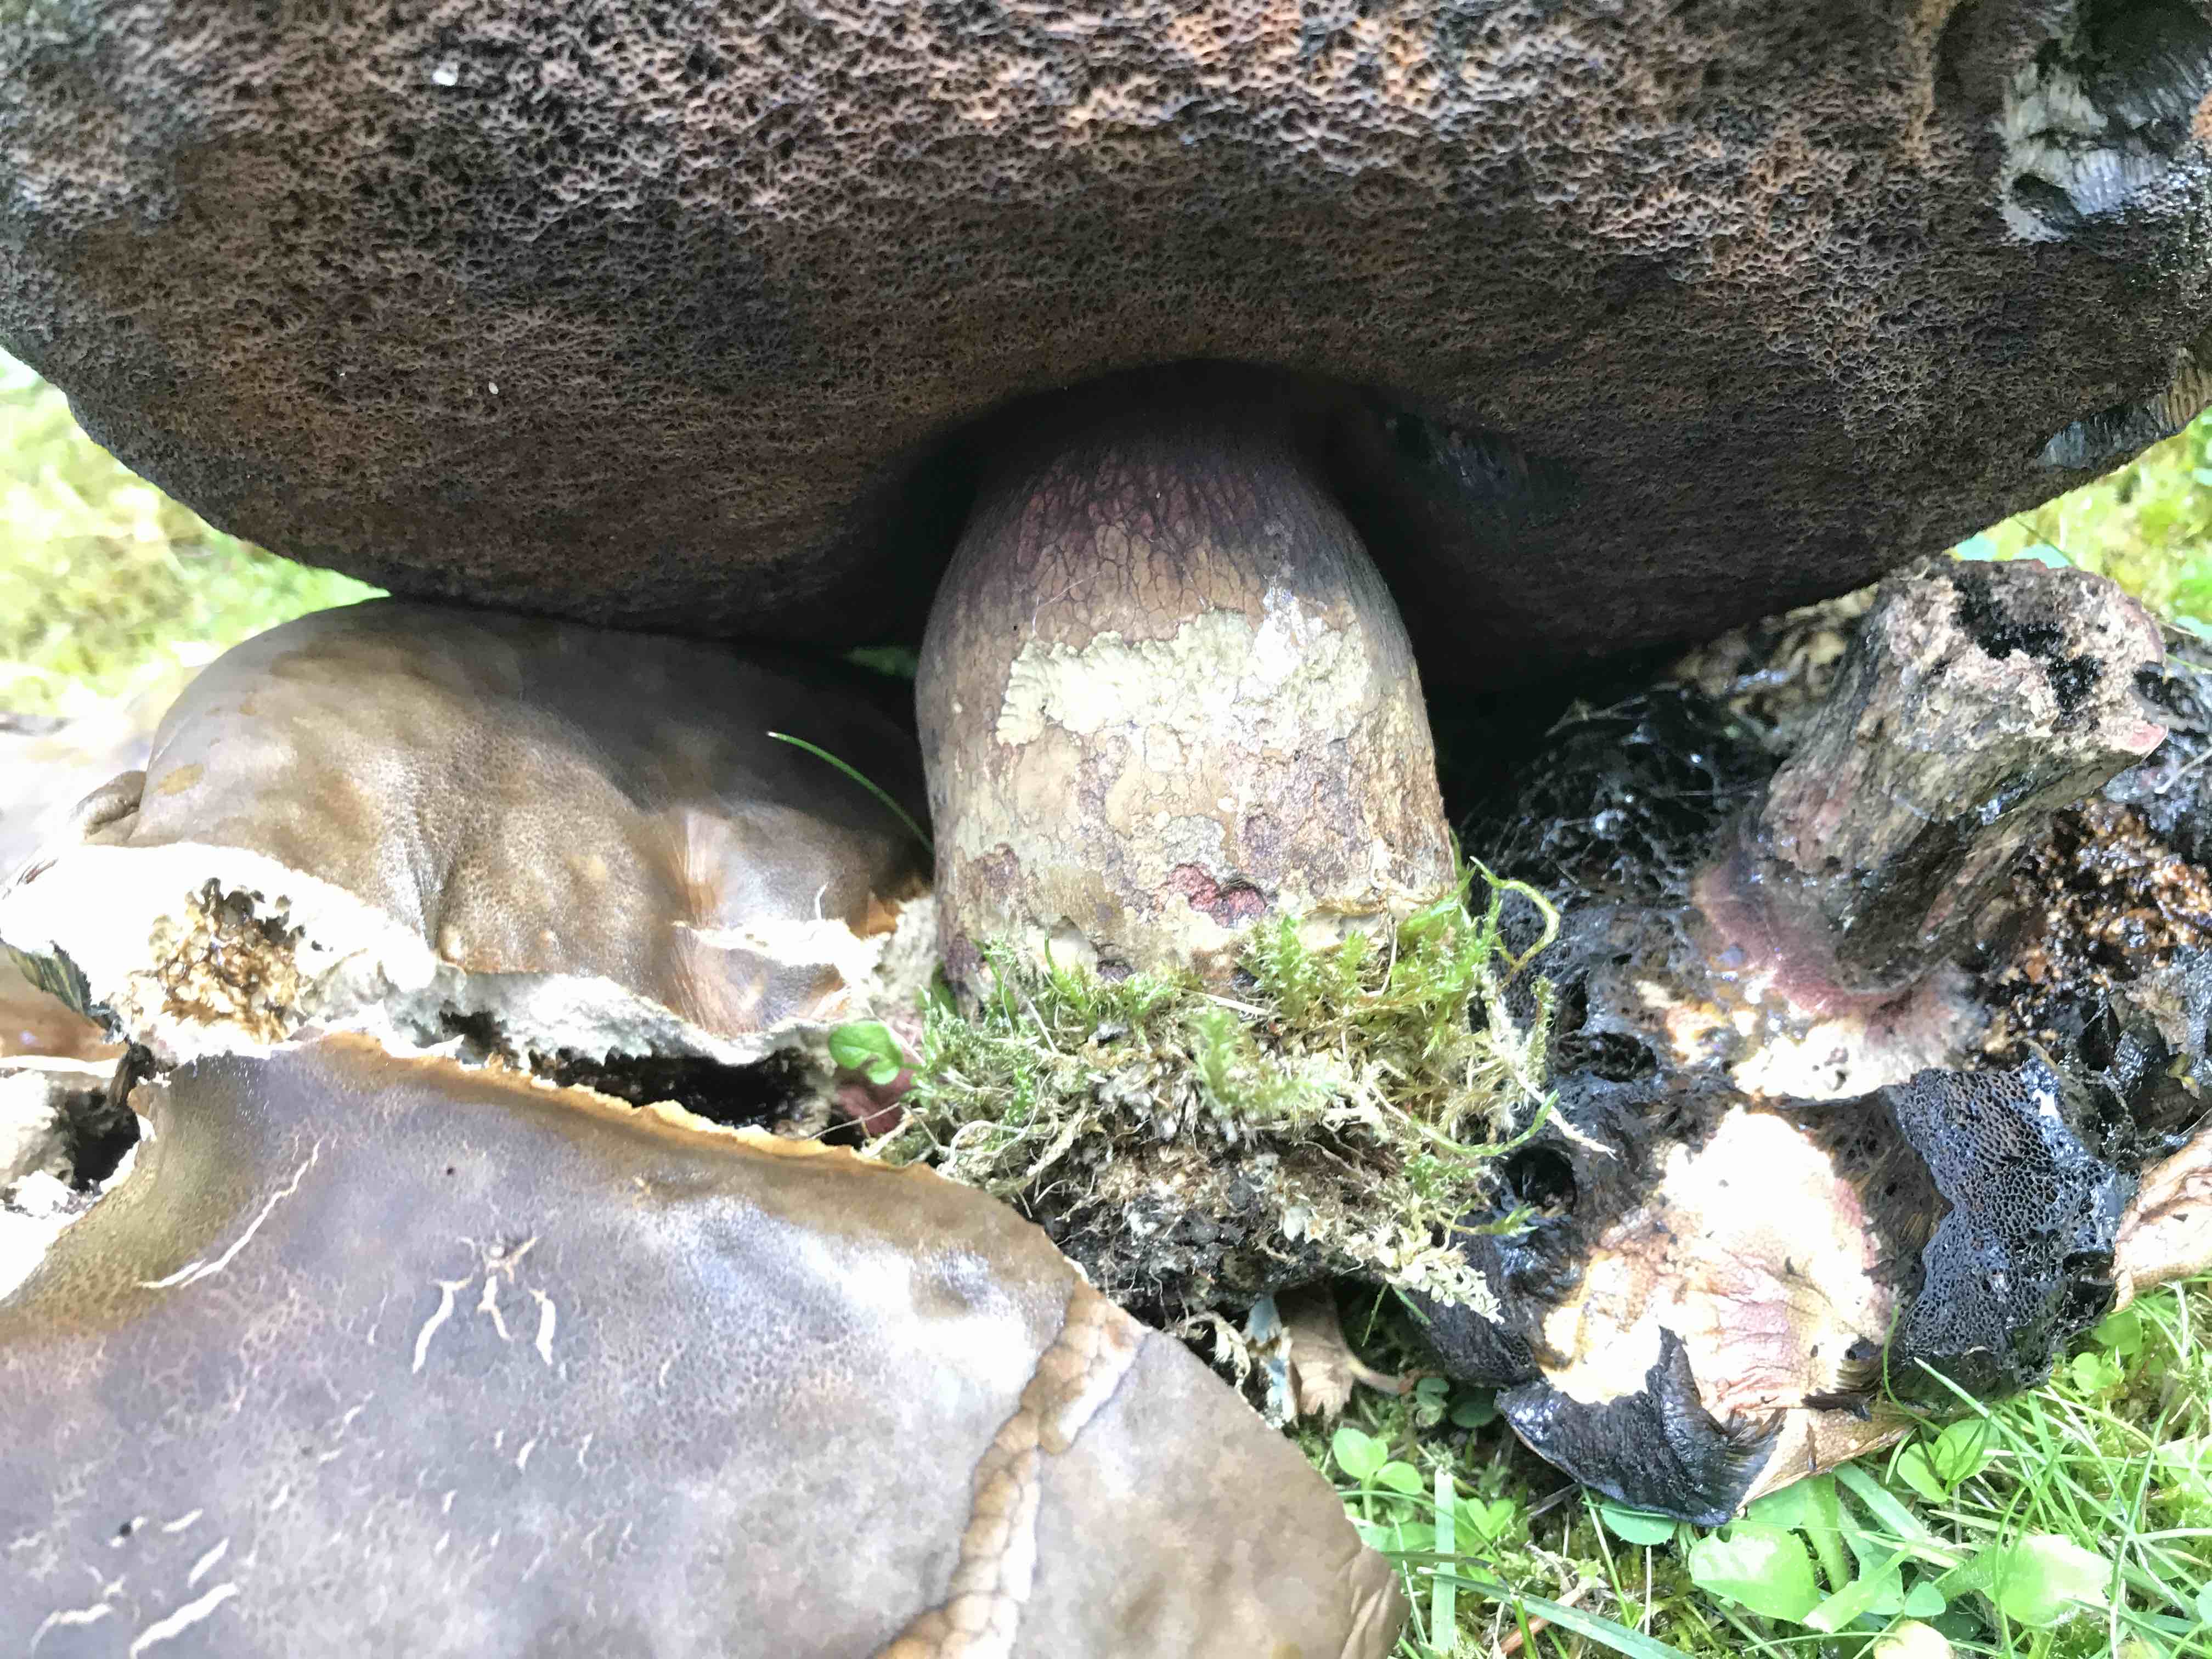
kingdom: Fungi
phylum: Basidiomycota
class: Agaricomycetes
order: Boletales
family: Boletaceae
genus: Suillellus
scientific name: Suillellus luridus
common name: netstokket indigorørhat
